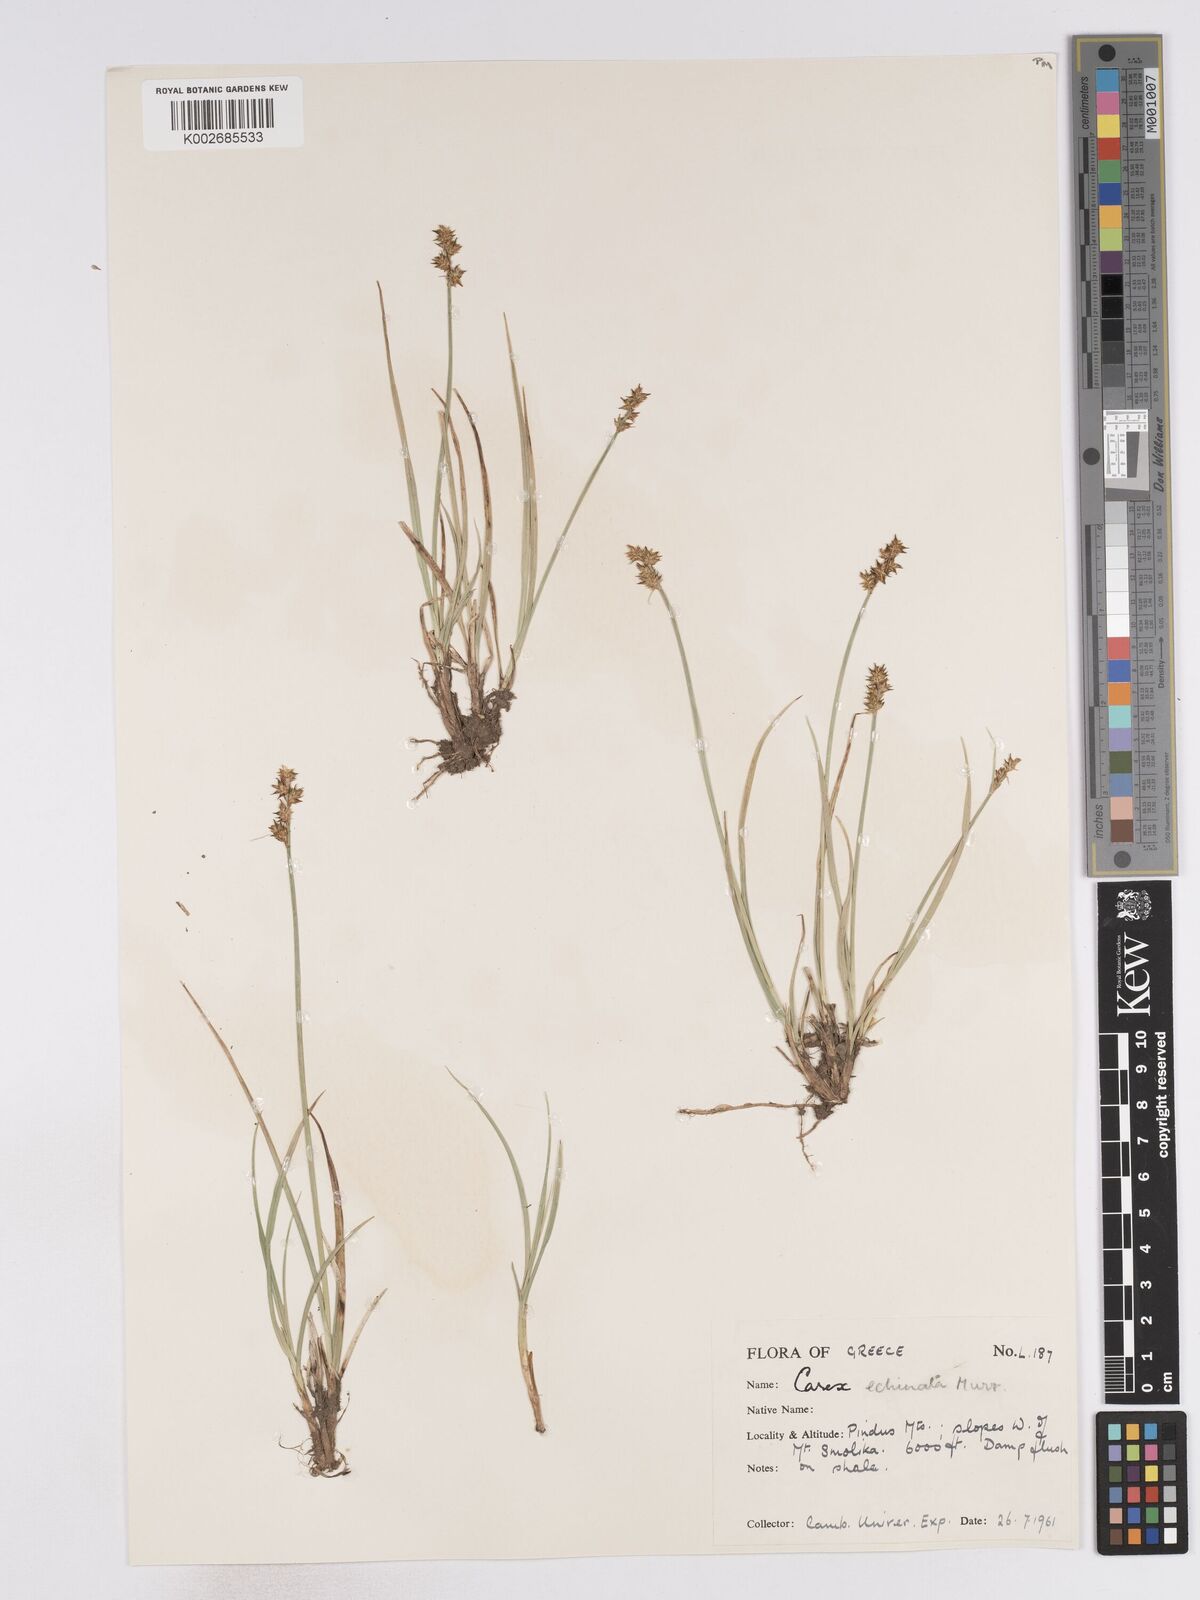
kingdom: Plantae
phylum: Tracheophyta
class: Liliopsida
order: Poales
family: Cyperaceae
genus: Carex
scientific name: Carex echinata
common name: Star sedge
